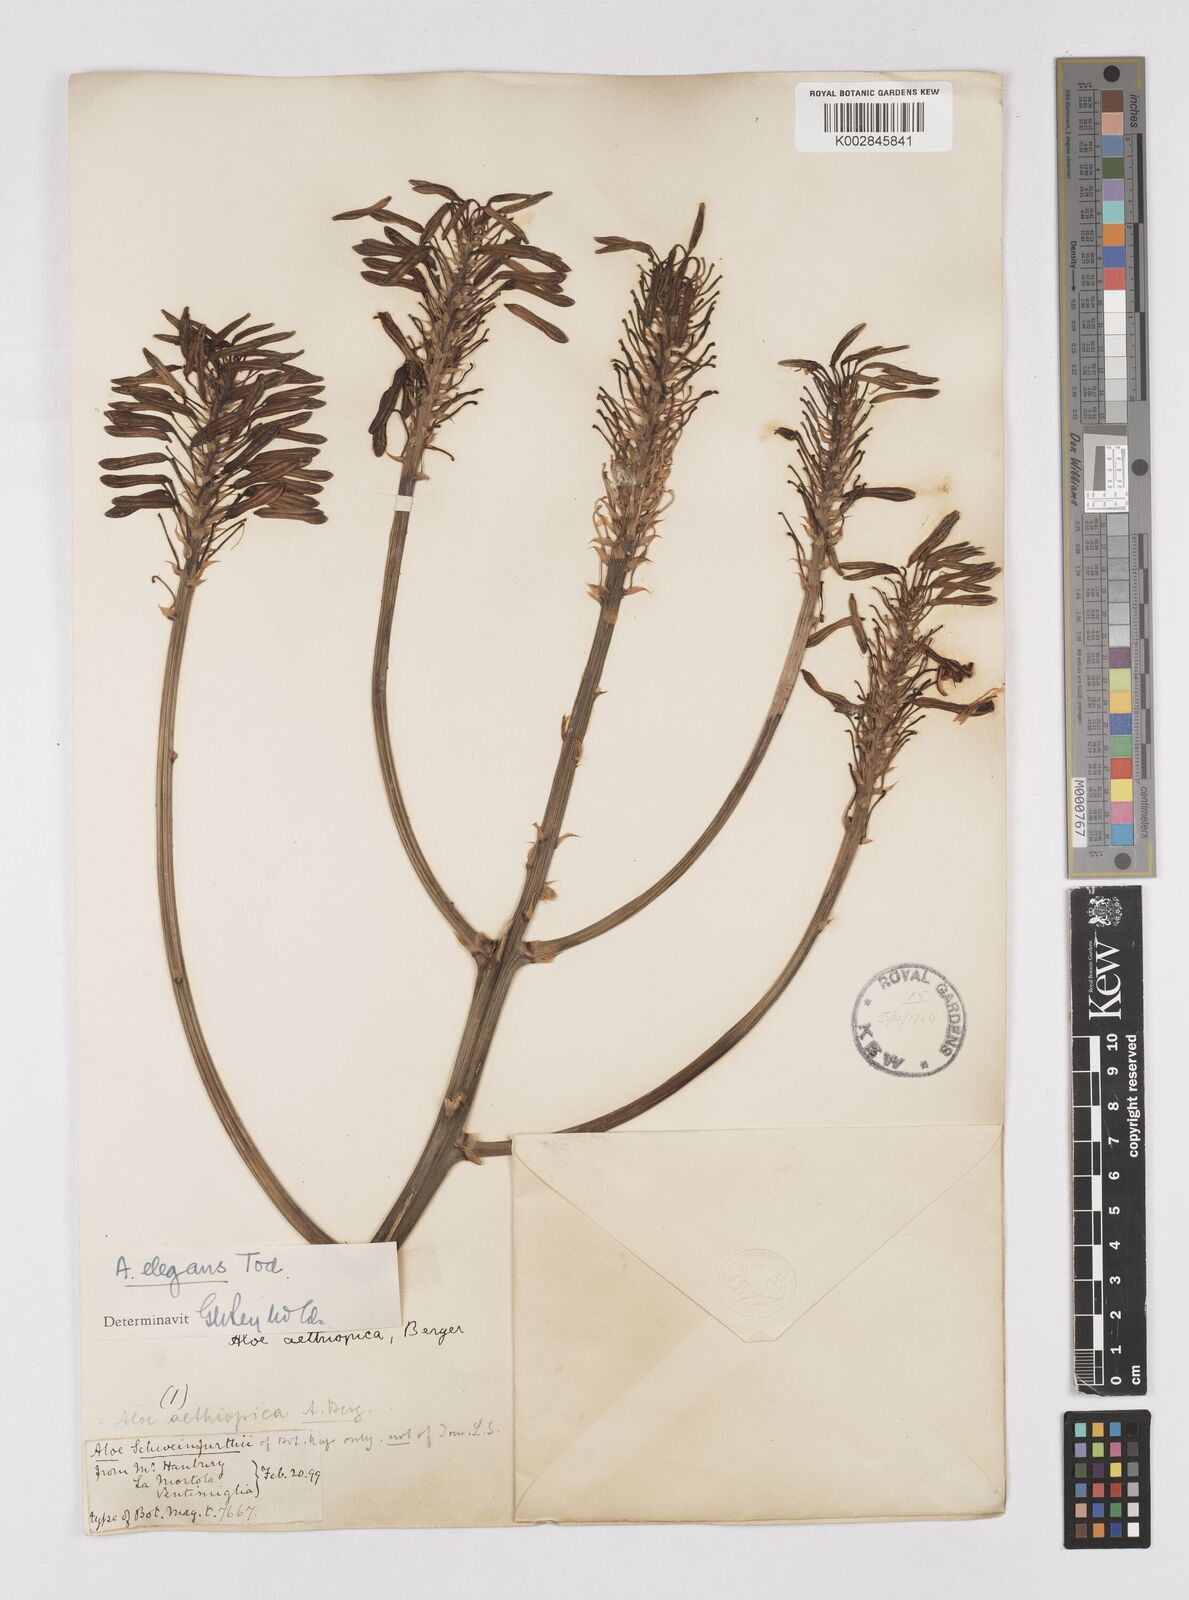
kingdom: Plantae
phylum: Tracheophyta
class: Liliopsida
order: Asparagales
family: Asphodelaceae
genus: Aloe
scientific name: Aloe elegans
